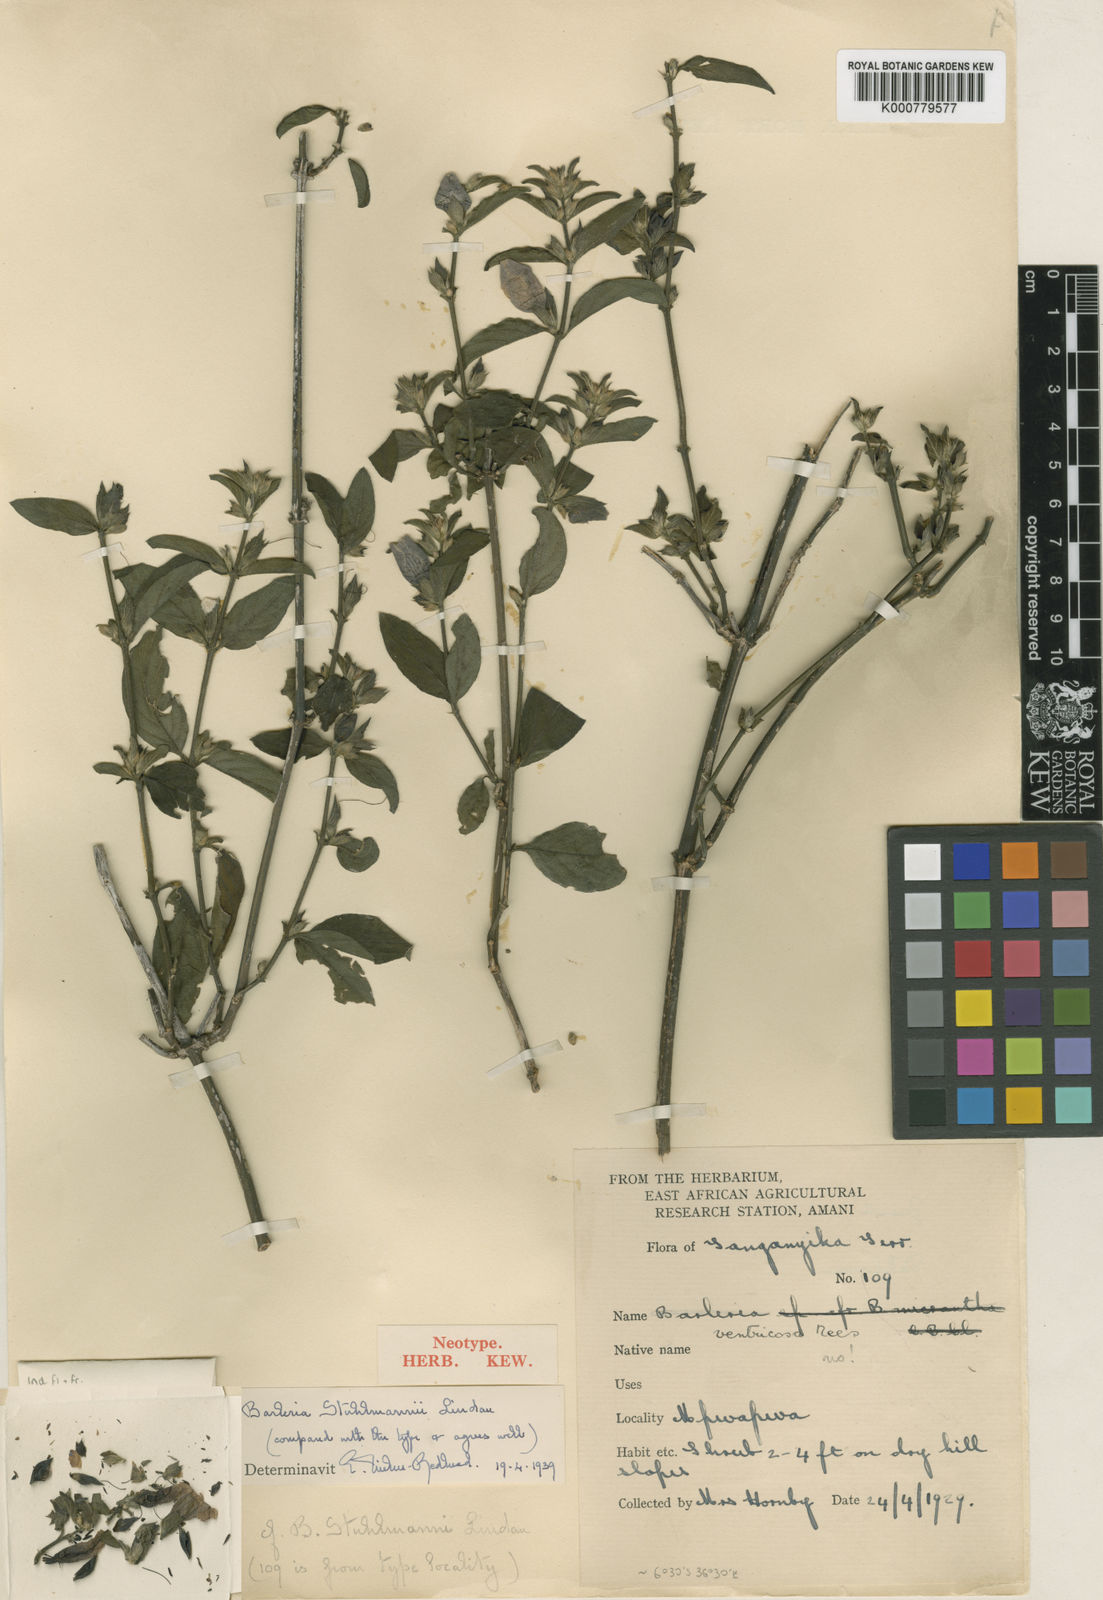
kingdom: Plantae
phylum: Tracheophyta
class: Magnoliopsida
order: Lamiales
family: Acanthaceae
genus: Barleria
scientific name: Barleria ventricosa
